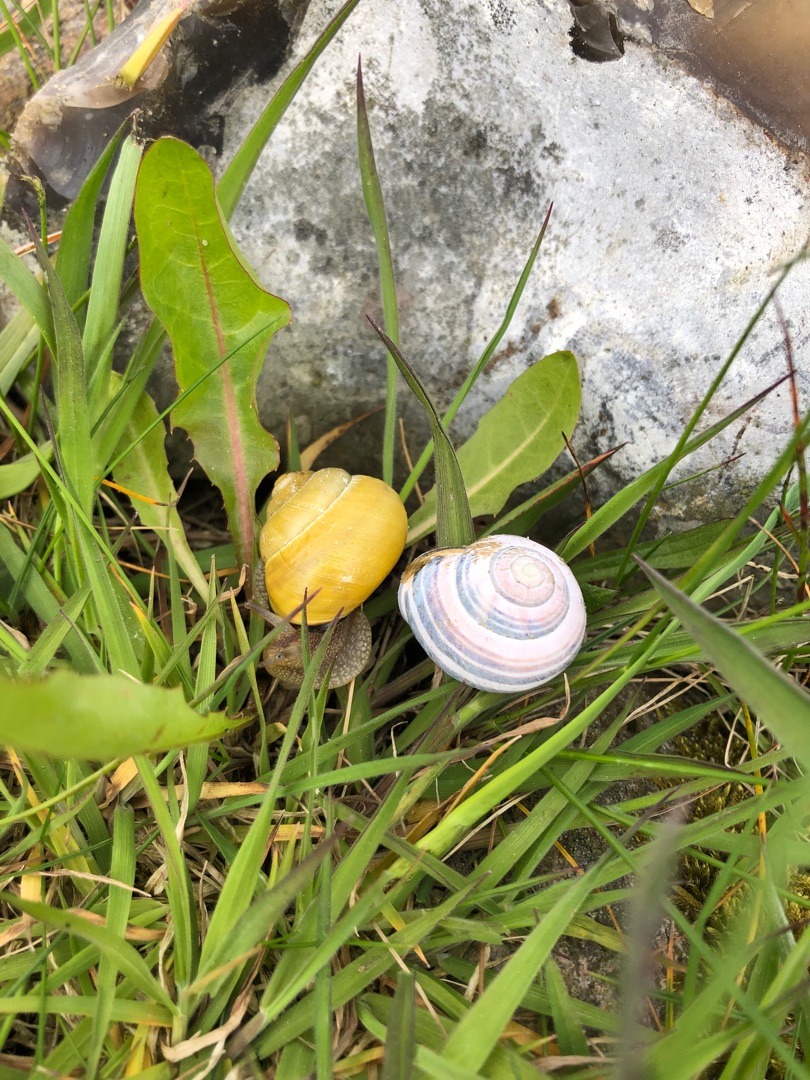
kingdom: Animalia
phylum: Mollusca
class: Gastropoda
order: Stylommatophora
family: Helicidae
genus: Cepaea
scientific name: Cepaea hortensis
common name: Havesnegl
